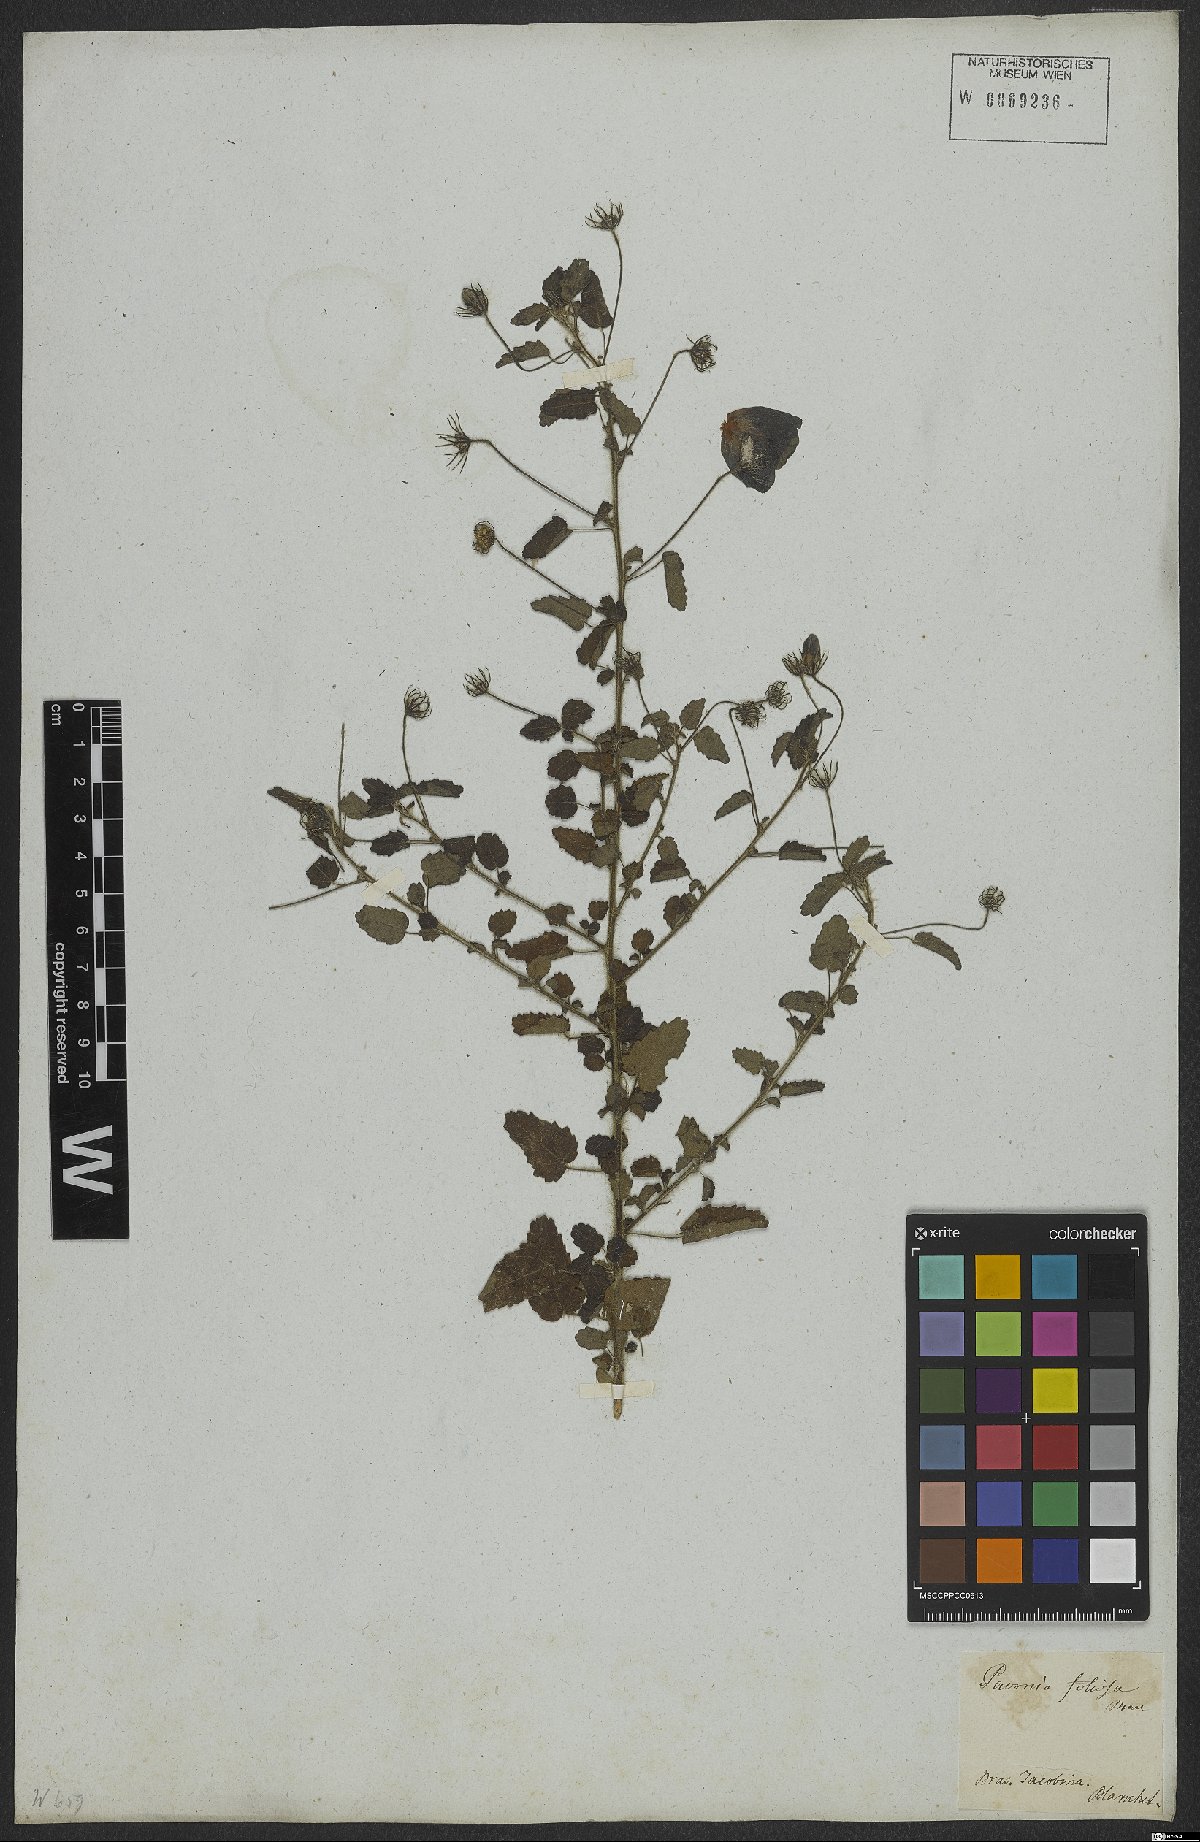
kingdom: Plantae
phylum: Tracheophyta
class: Magnoliopsida
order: Malvales
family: Malvaceae
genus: Pavonia
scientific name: Pavonia dregei
